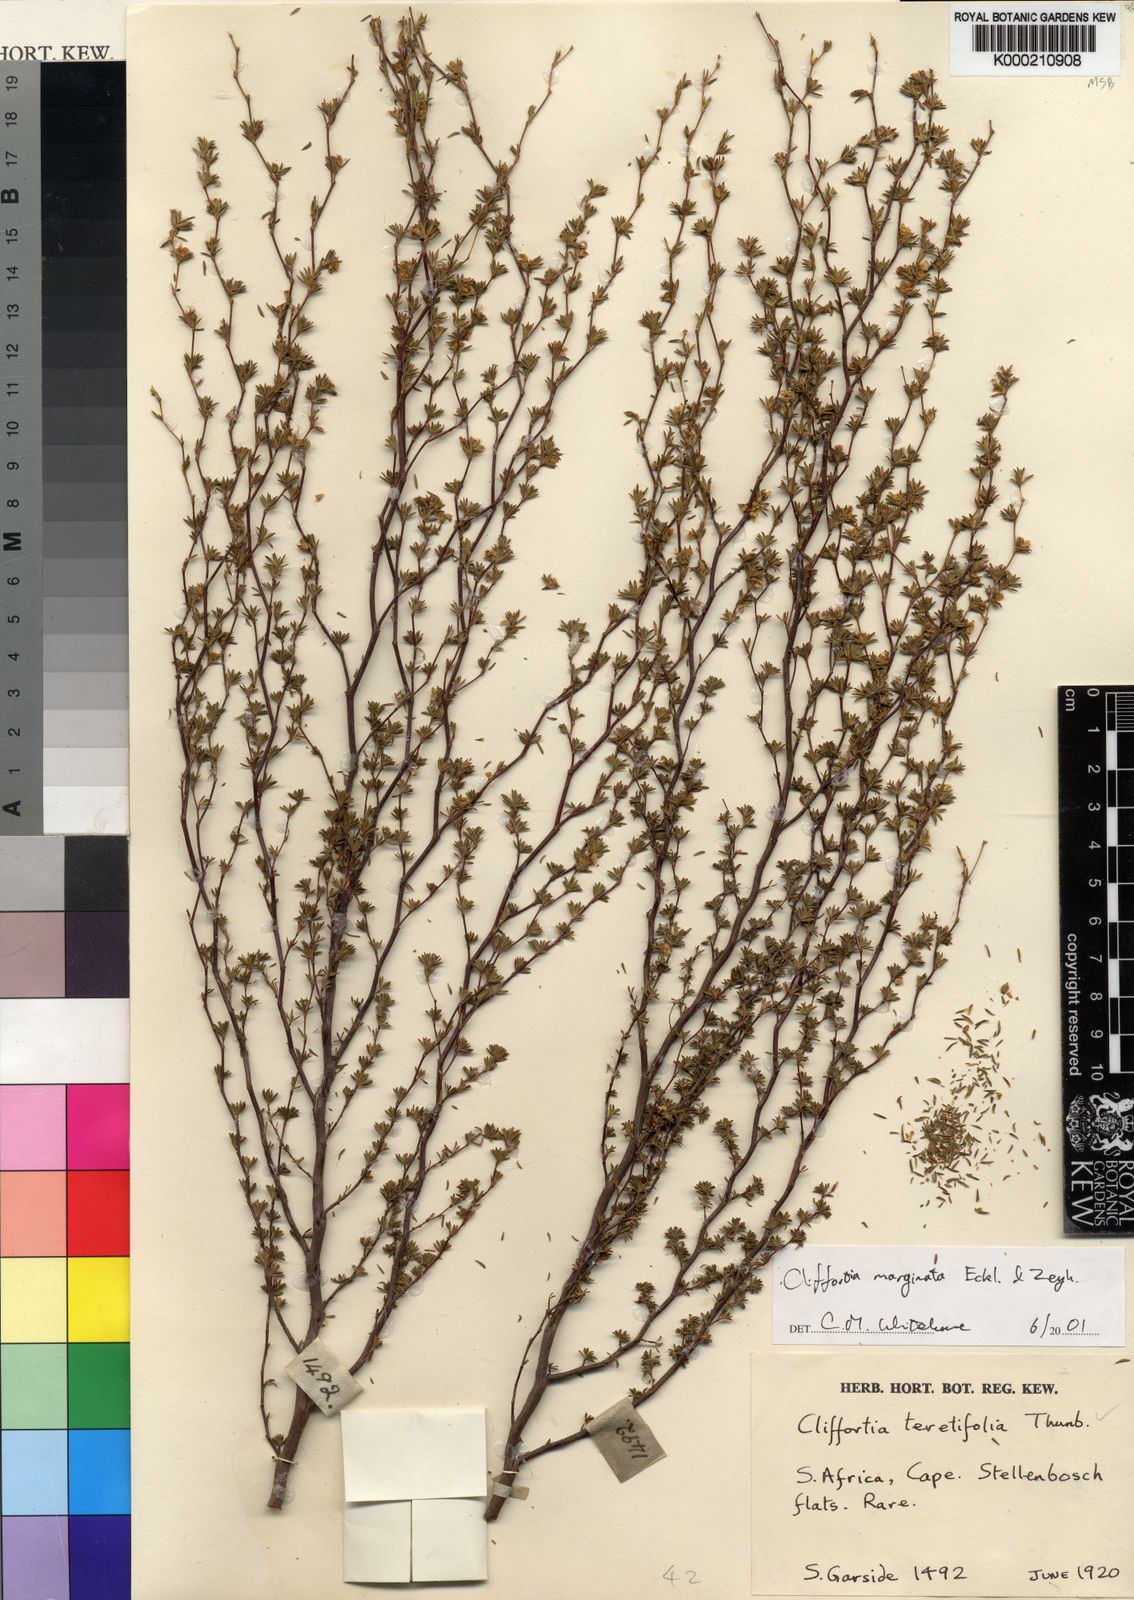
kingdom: Plantae
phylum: Tracheophyta
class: Magnoliopsida
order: Rosales
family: Rosaceae
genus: Cliffortia
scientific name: Cliffortia marginata
